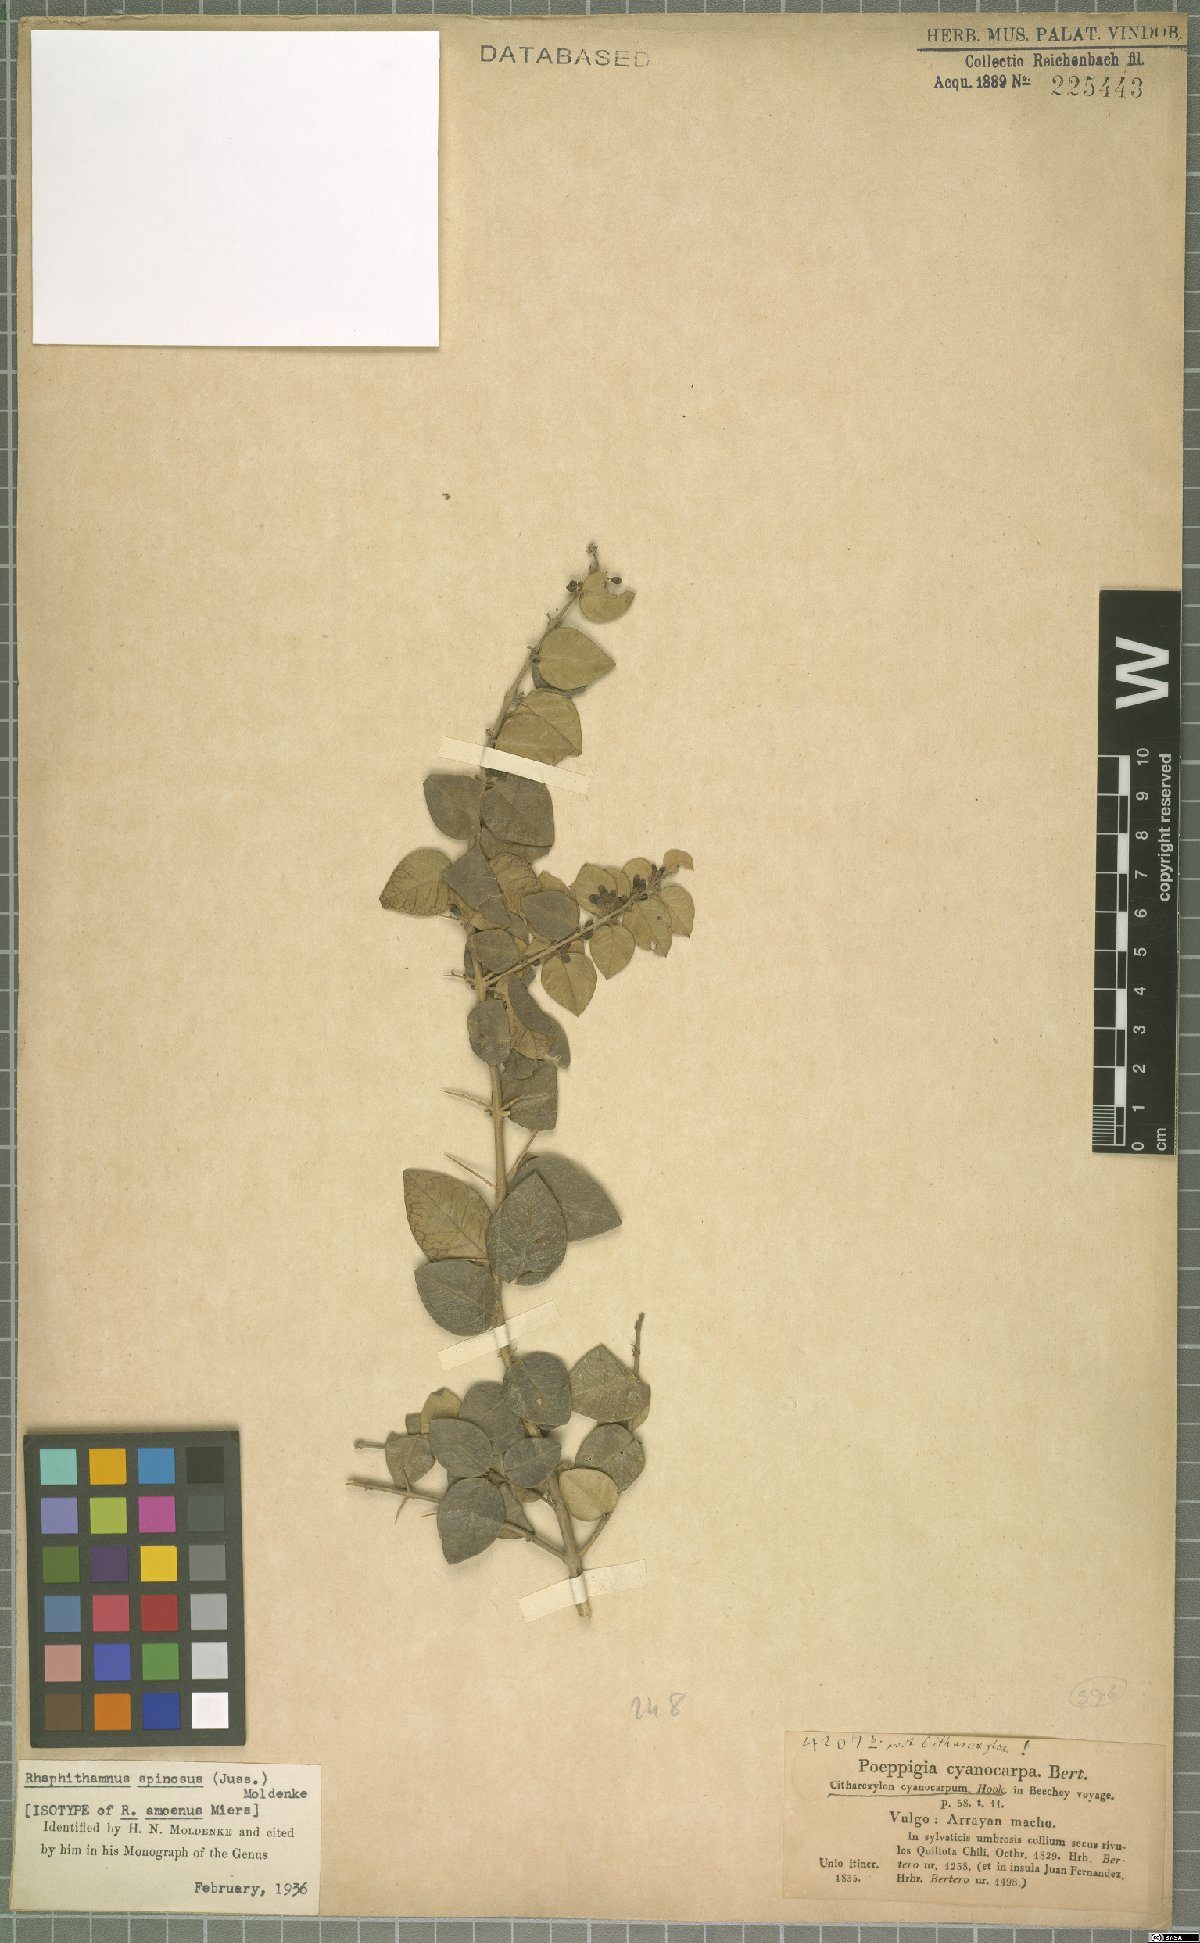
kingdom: Plantae
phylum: Tracheophyta
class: Magnoliopsida
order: Lamiales
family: Verbenaceae
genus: Rhaphithamnus
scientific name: Rhaphithamnus spinosus
